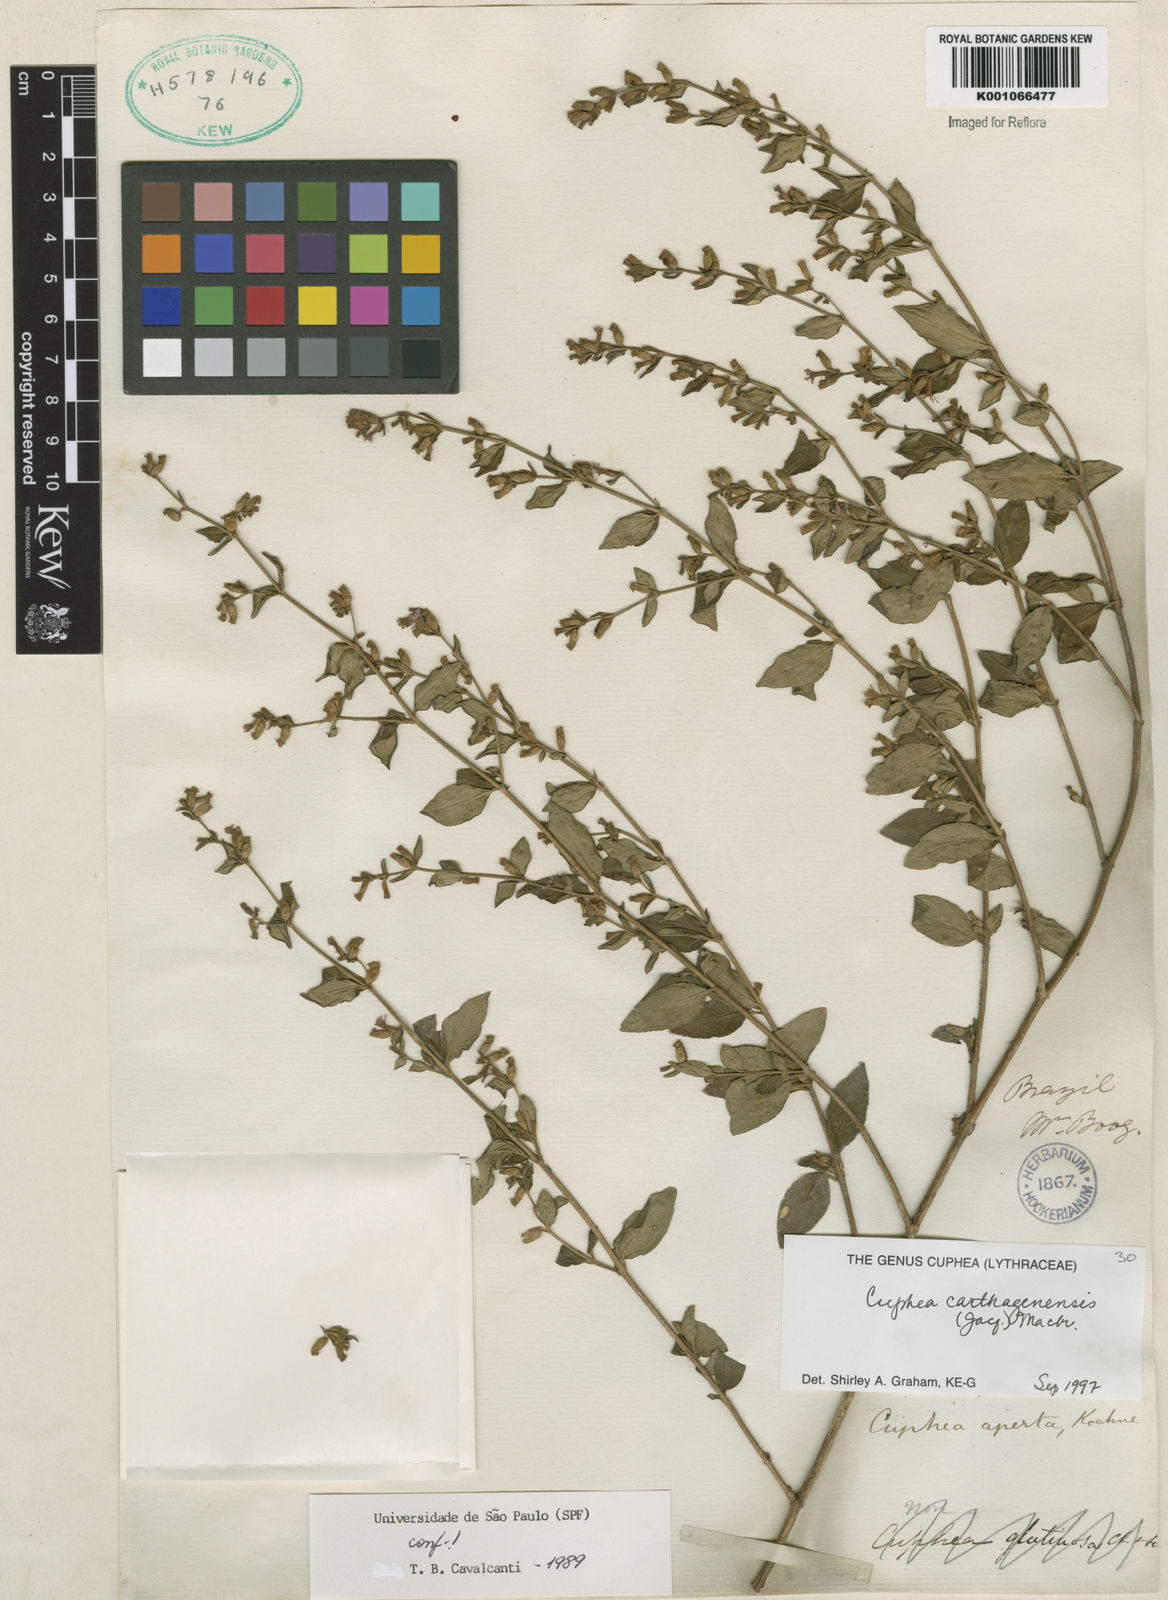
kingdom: Plantae
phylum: Tracheophyta
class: Magnoliopsida
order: Myrtales
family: Lythraceae
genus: Cuphea
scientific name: Cuphea carthagenensis
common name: Colombian waxweed
